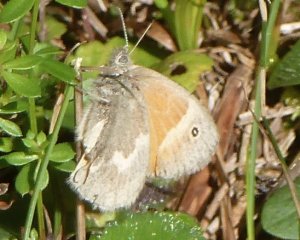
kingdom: Animalia
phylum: Arthropoda
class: Insecta
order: Lepidoptera
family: Nymphalidae
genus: Coenonympha
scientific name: Coenonympha tullia
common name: Large Heath
